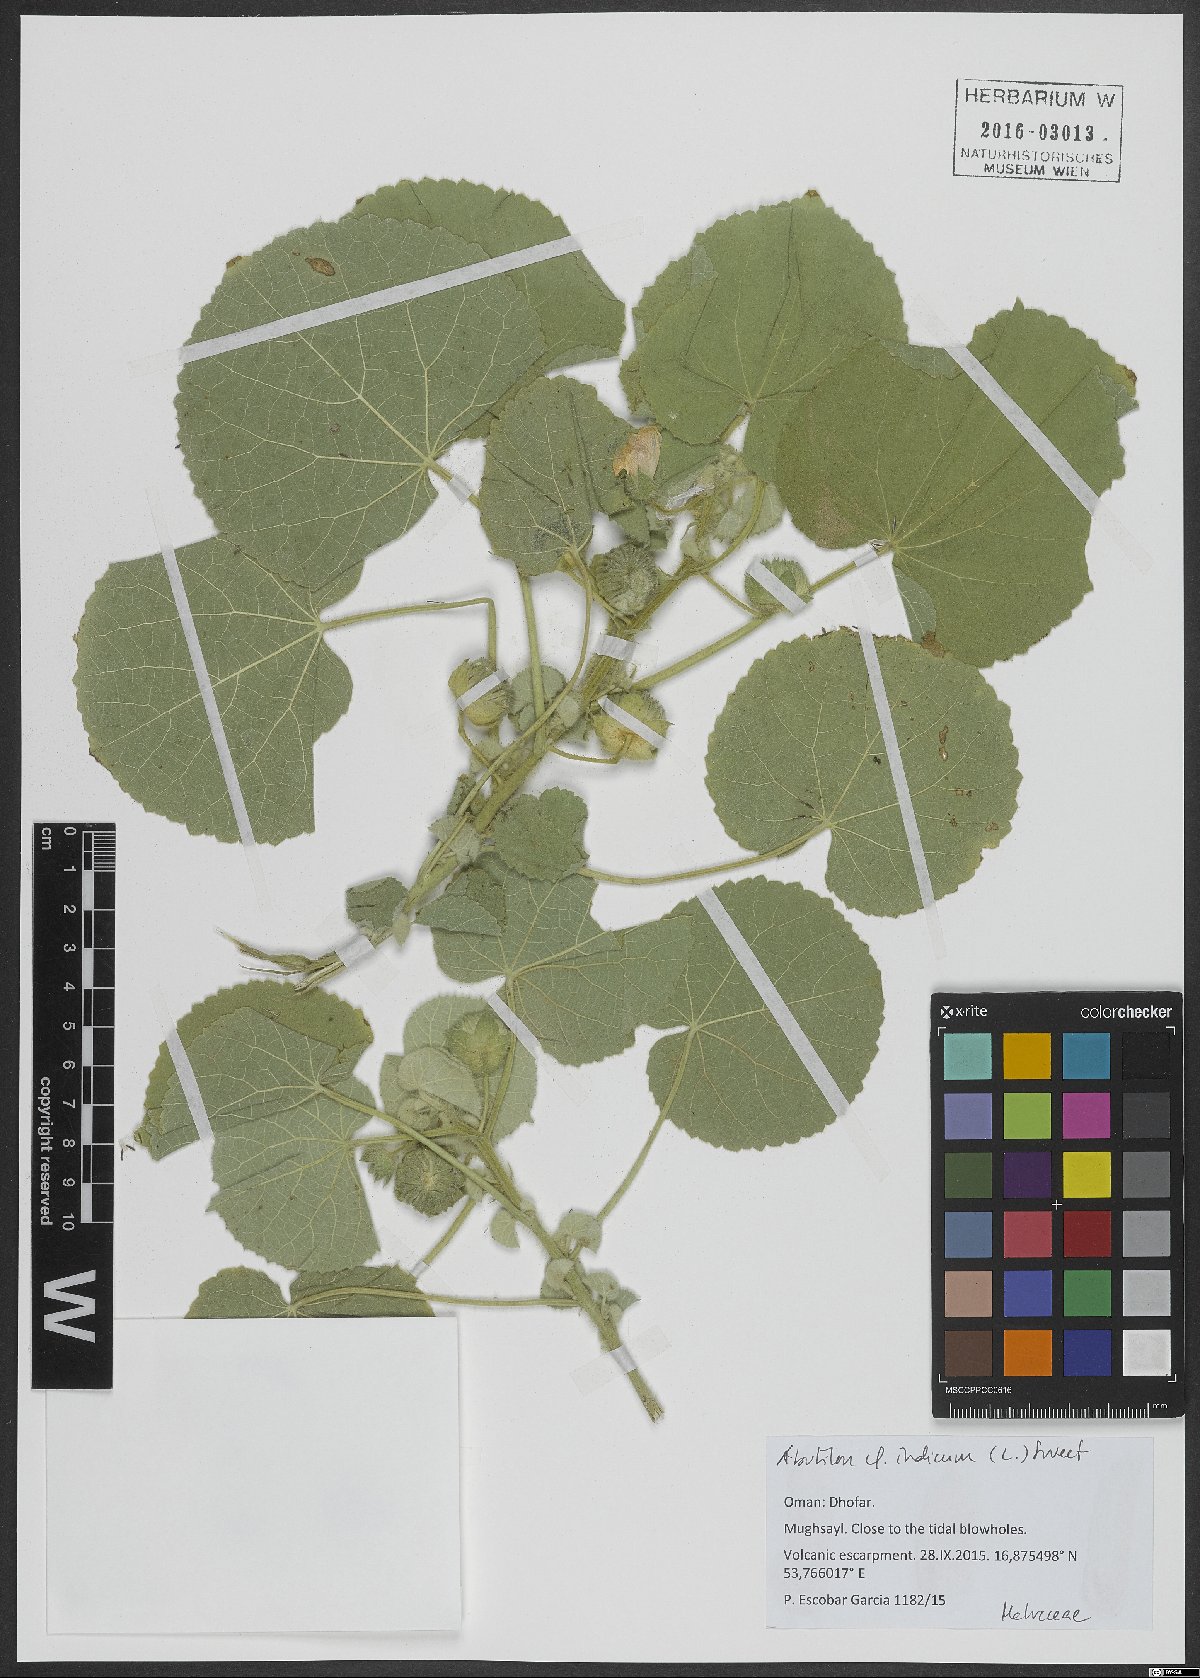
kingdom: Plantae
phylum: Tracheophyta
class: Magnoliopsida
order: Malvales
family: Malvaceae
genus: Abutilon
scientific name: Abutilon indicum
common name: Indian abutilon
